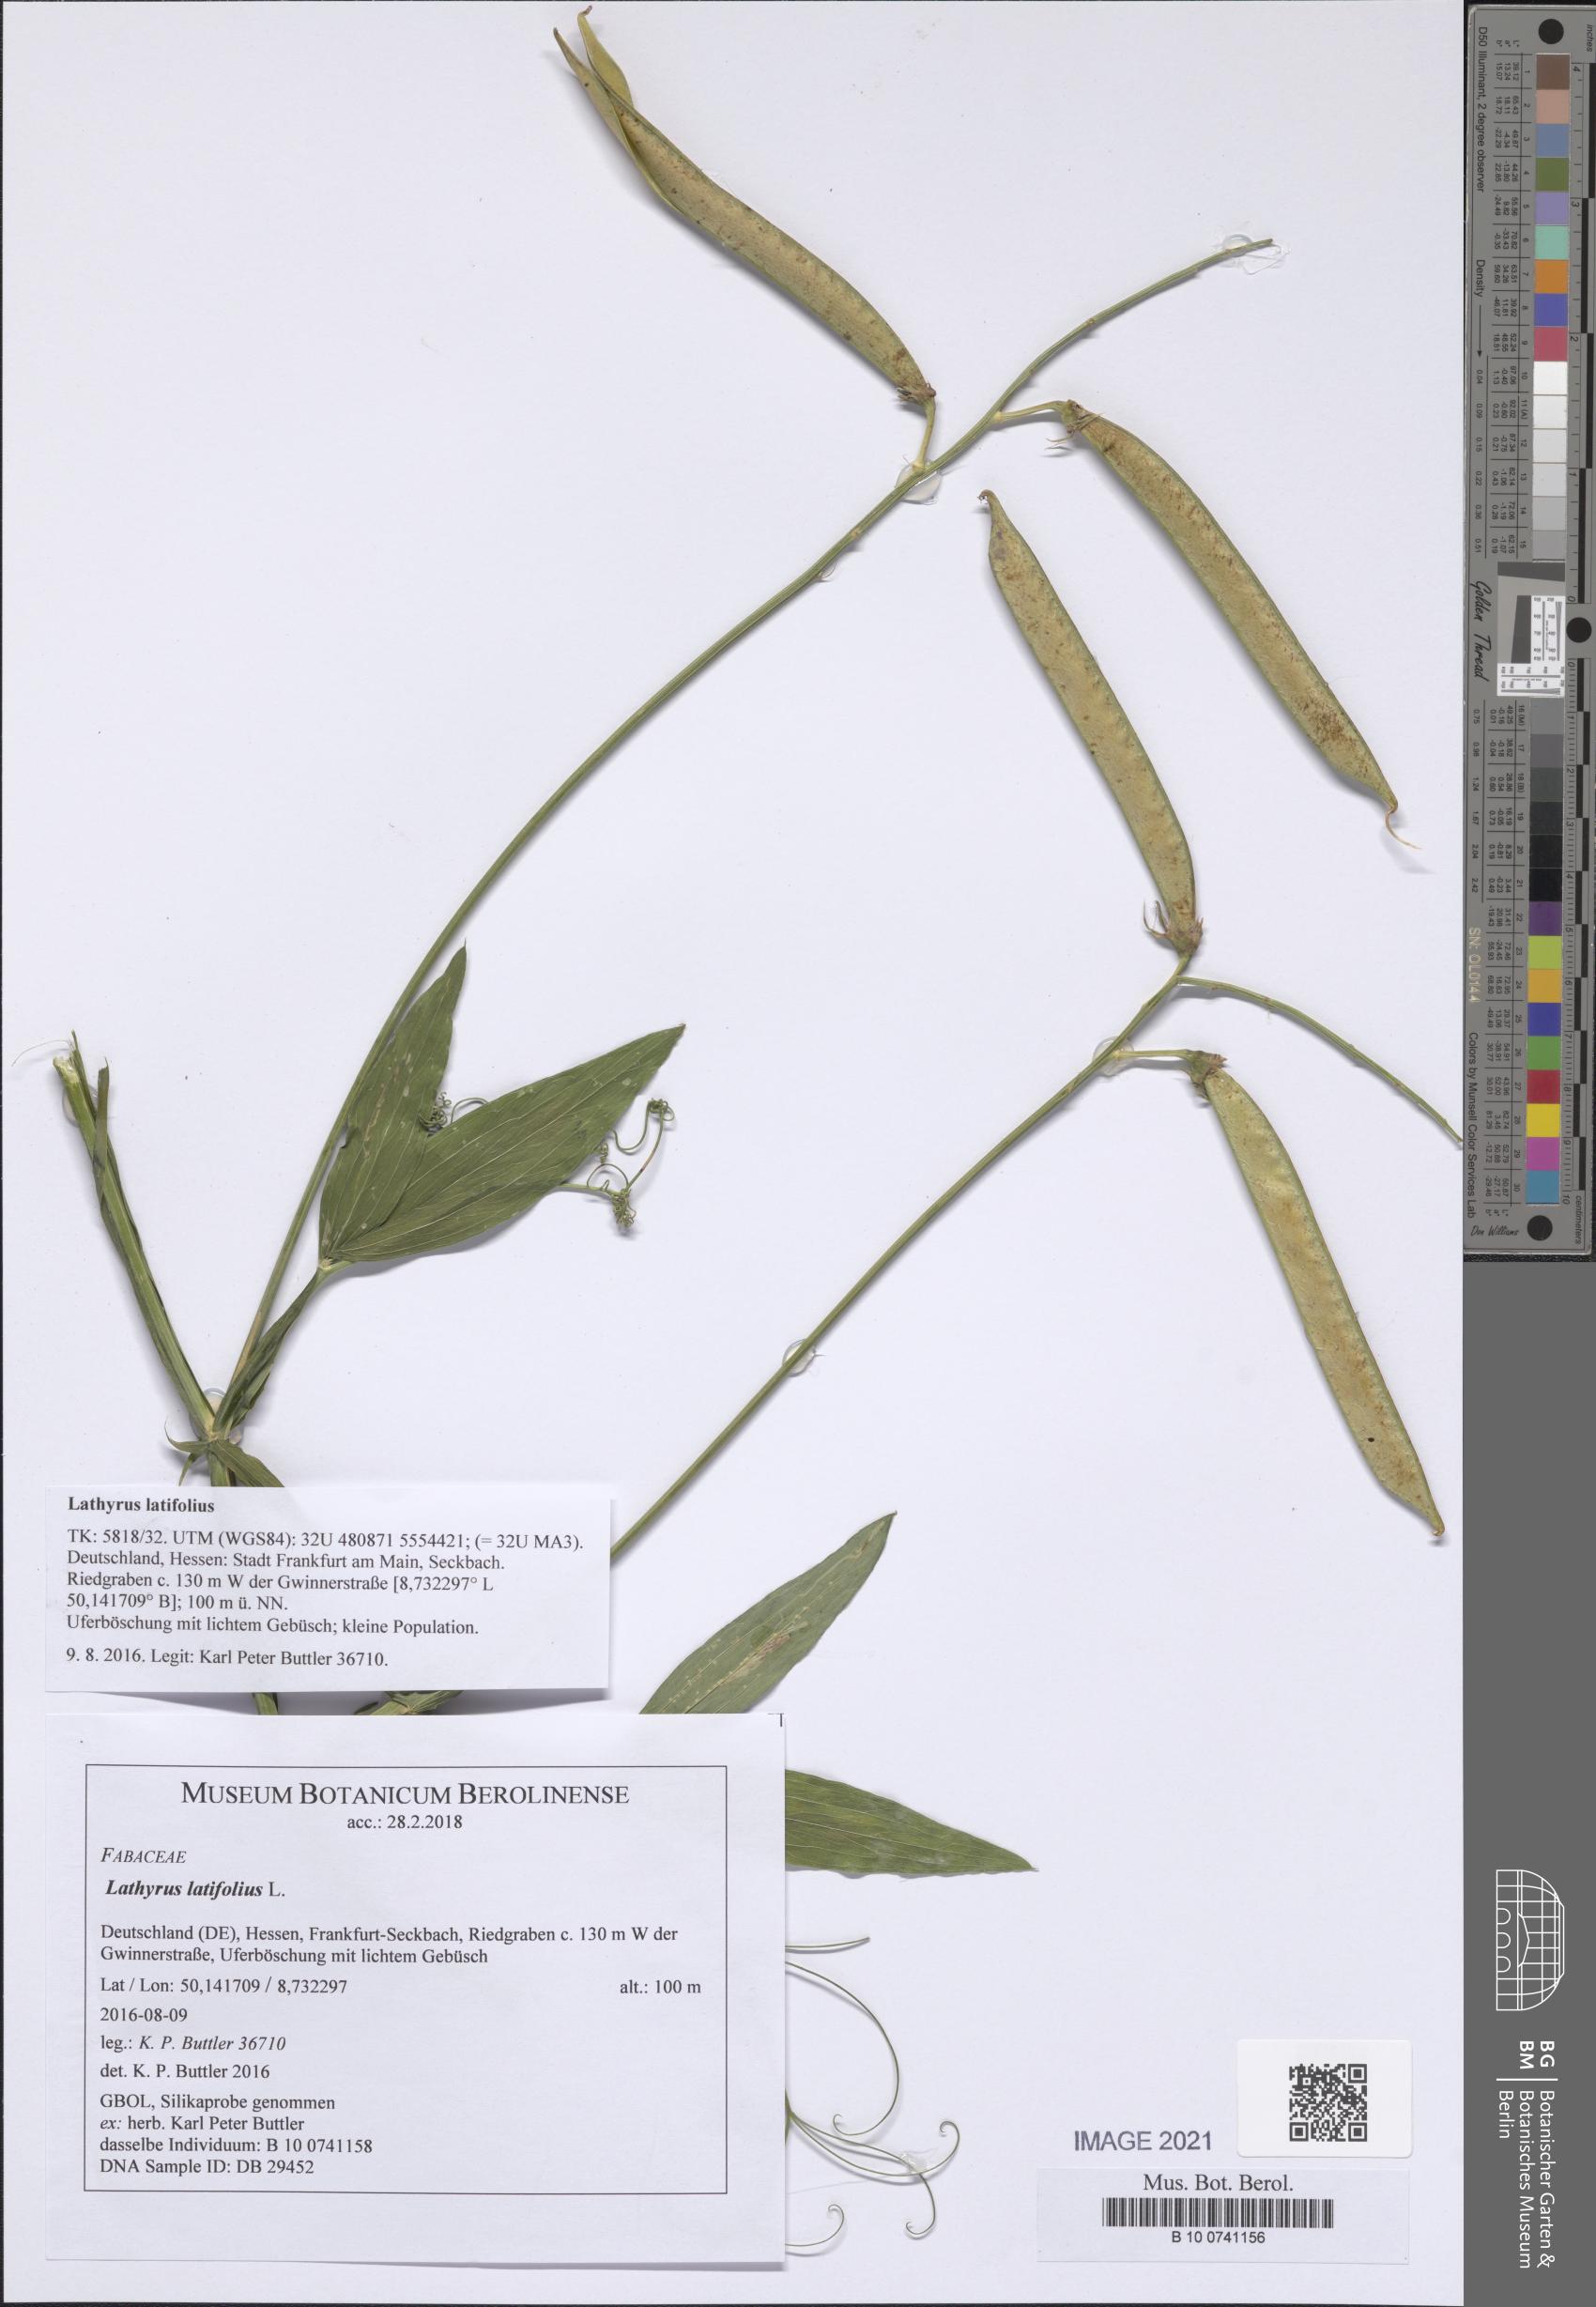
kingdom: Plantae
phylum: Tracheophyta
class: Magnoliopsida
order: Fabales
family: Fabaceae
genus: Lathyrus
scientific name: Lathyrus latifolius
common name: Perennial pea
